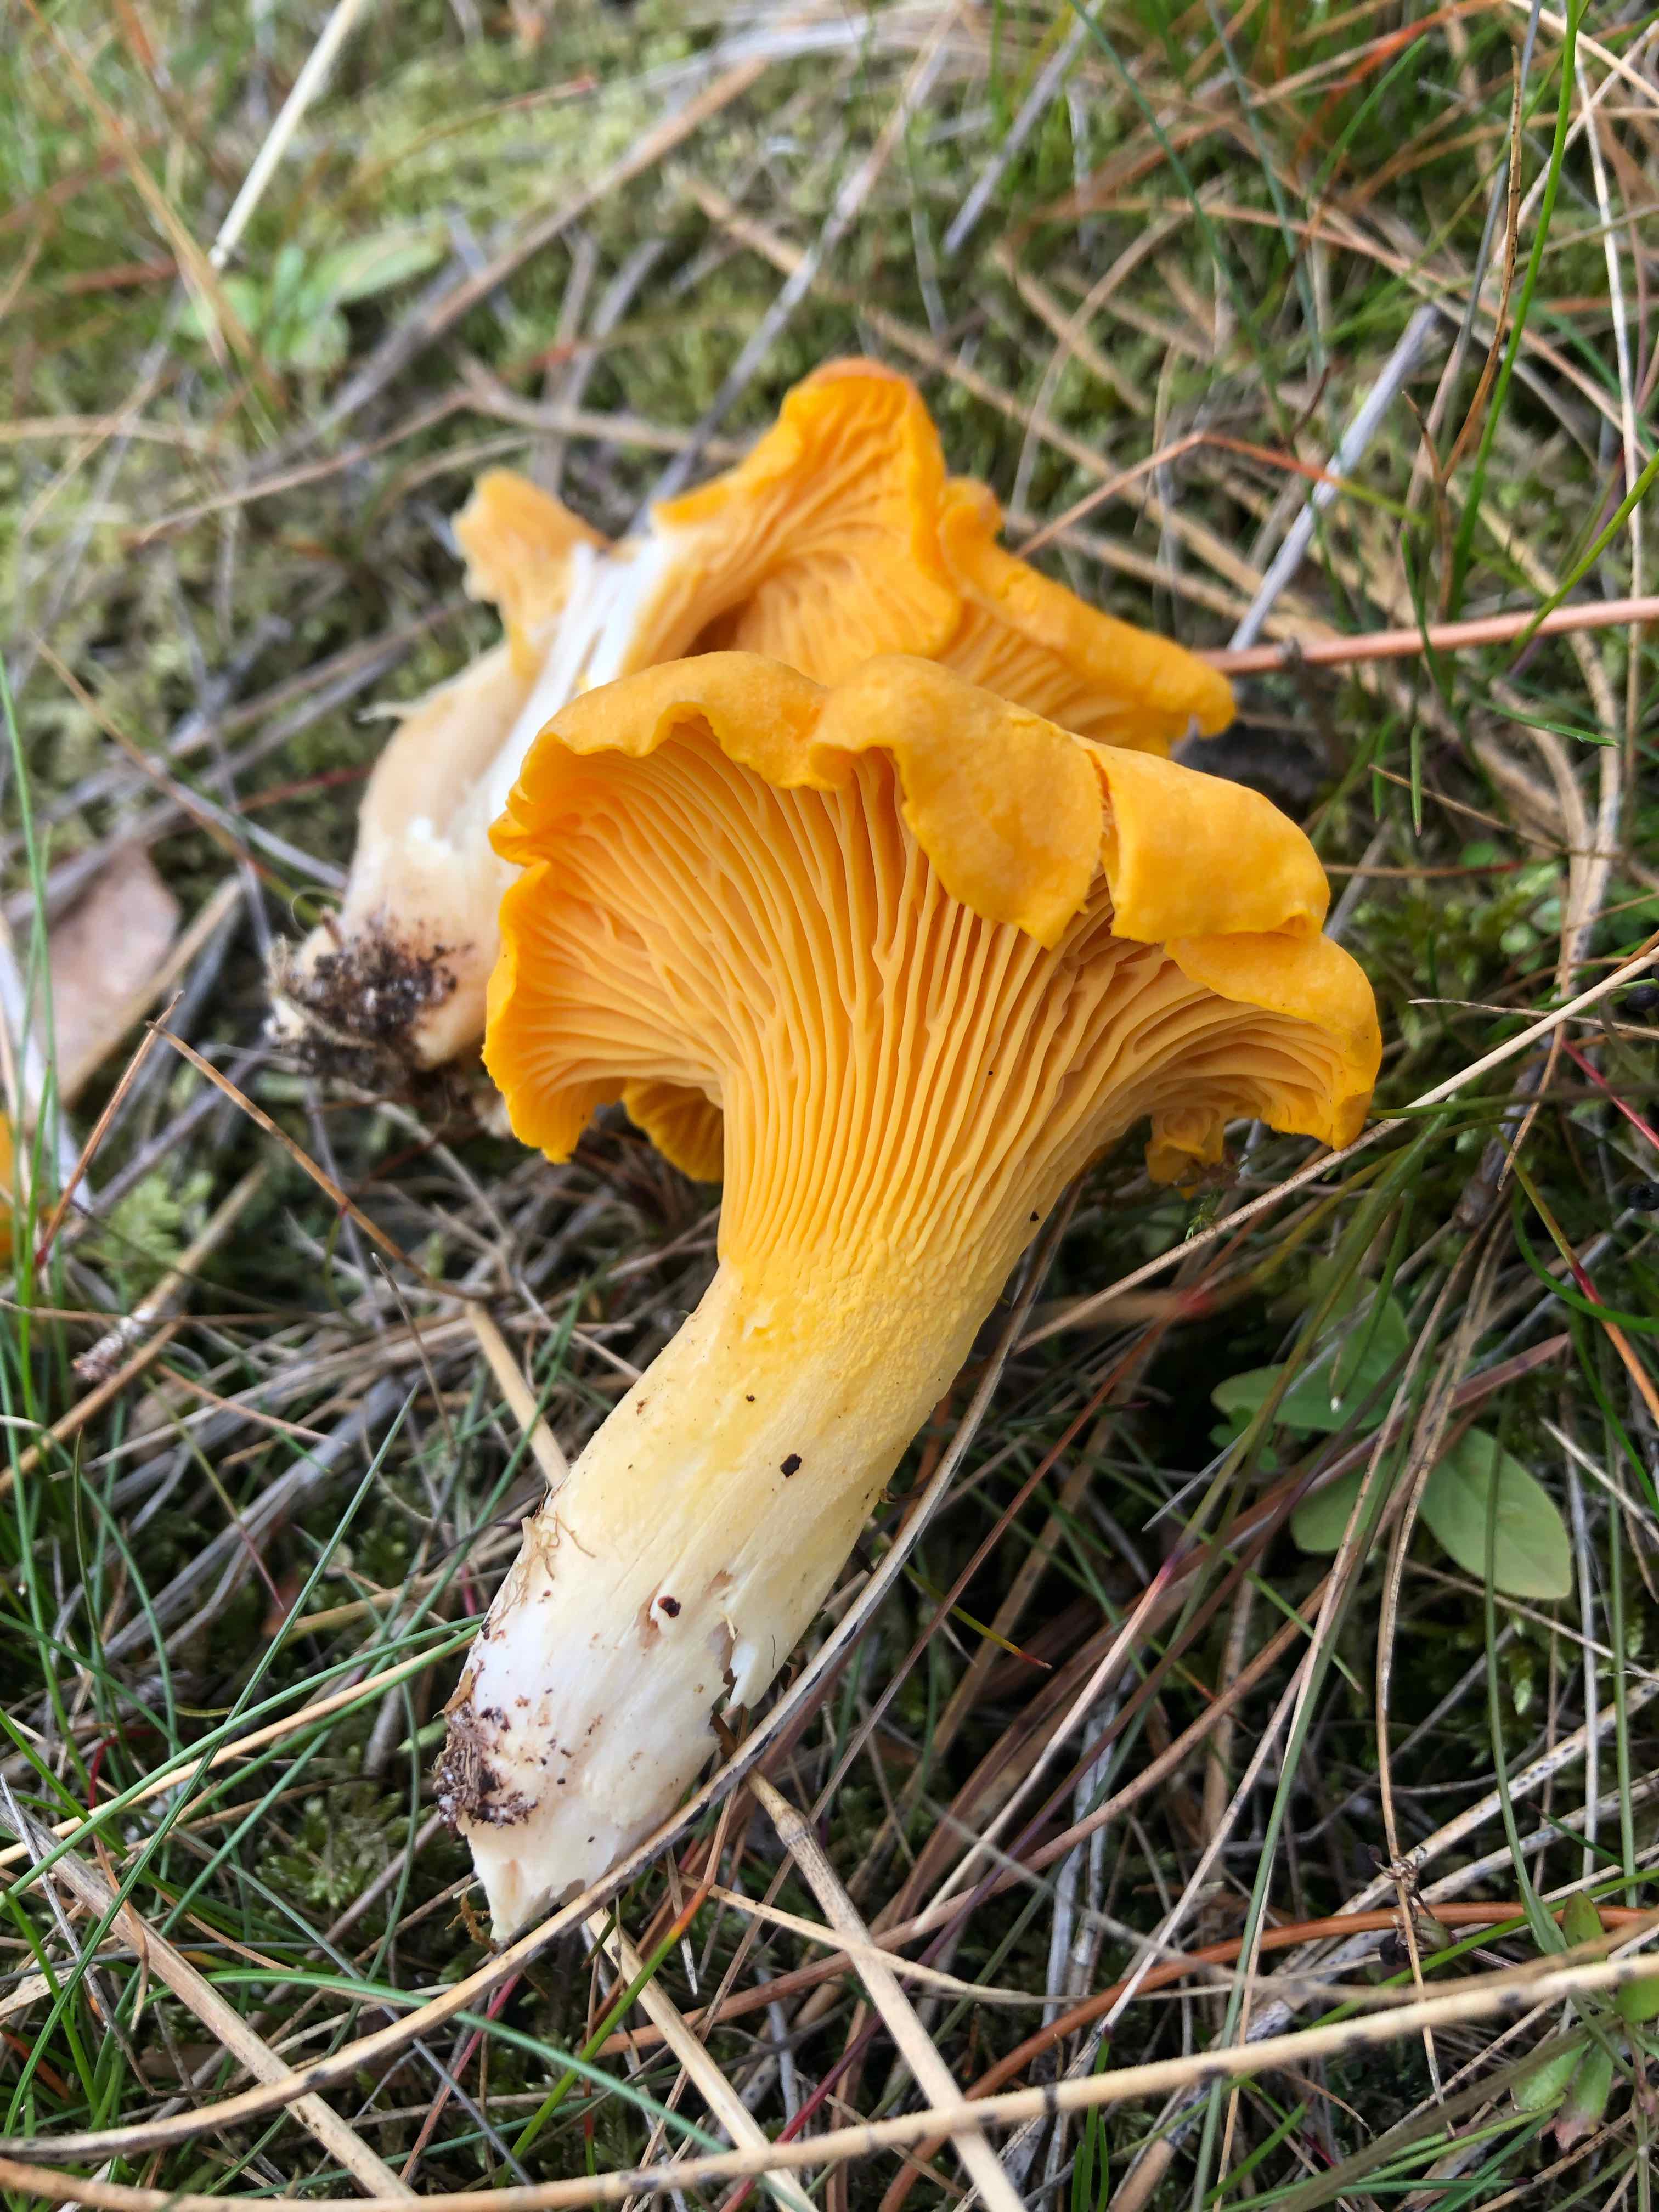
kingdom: Fungi
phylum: Basidiomycota
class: Agaricomycetes
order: Cantharellales
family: Hydnaceae
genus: Cantharellus
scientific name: Cantharellus cibarius
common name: almindelig kantarel
